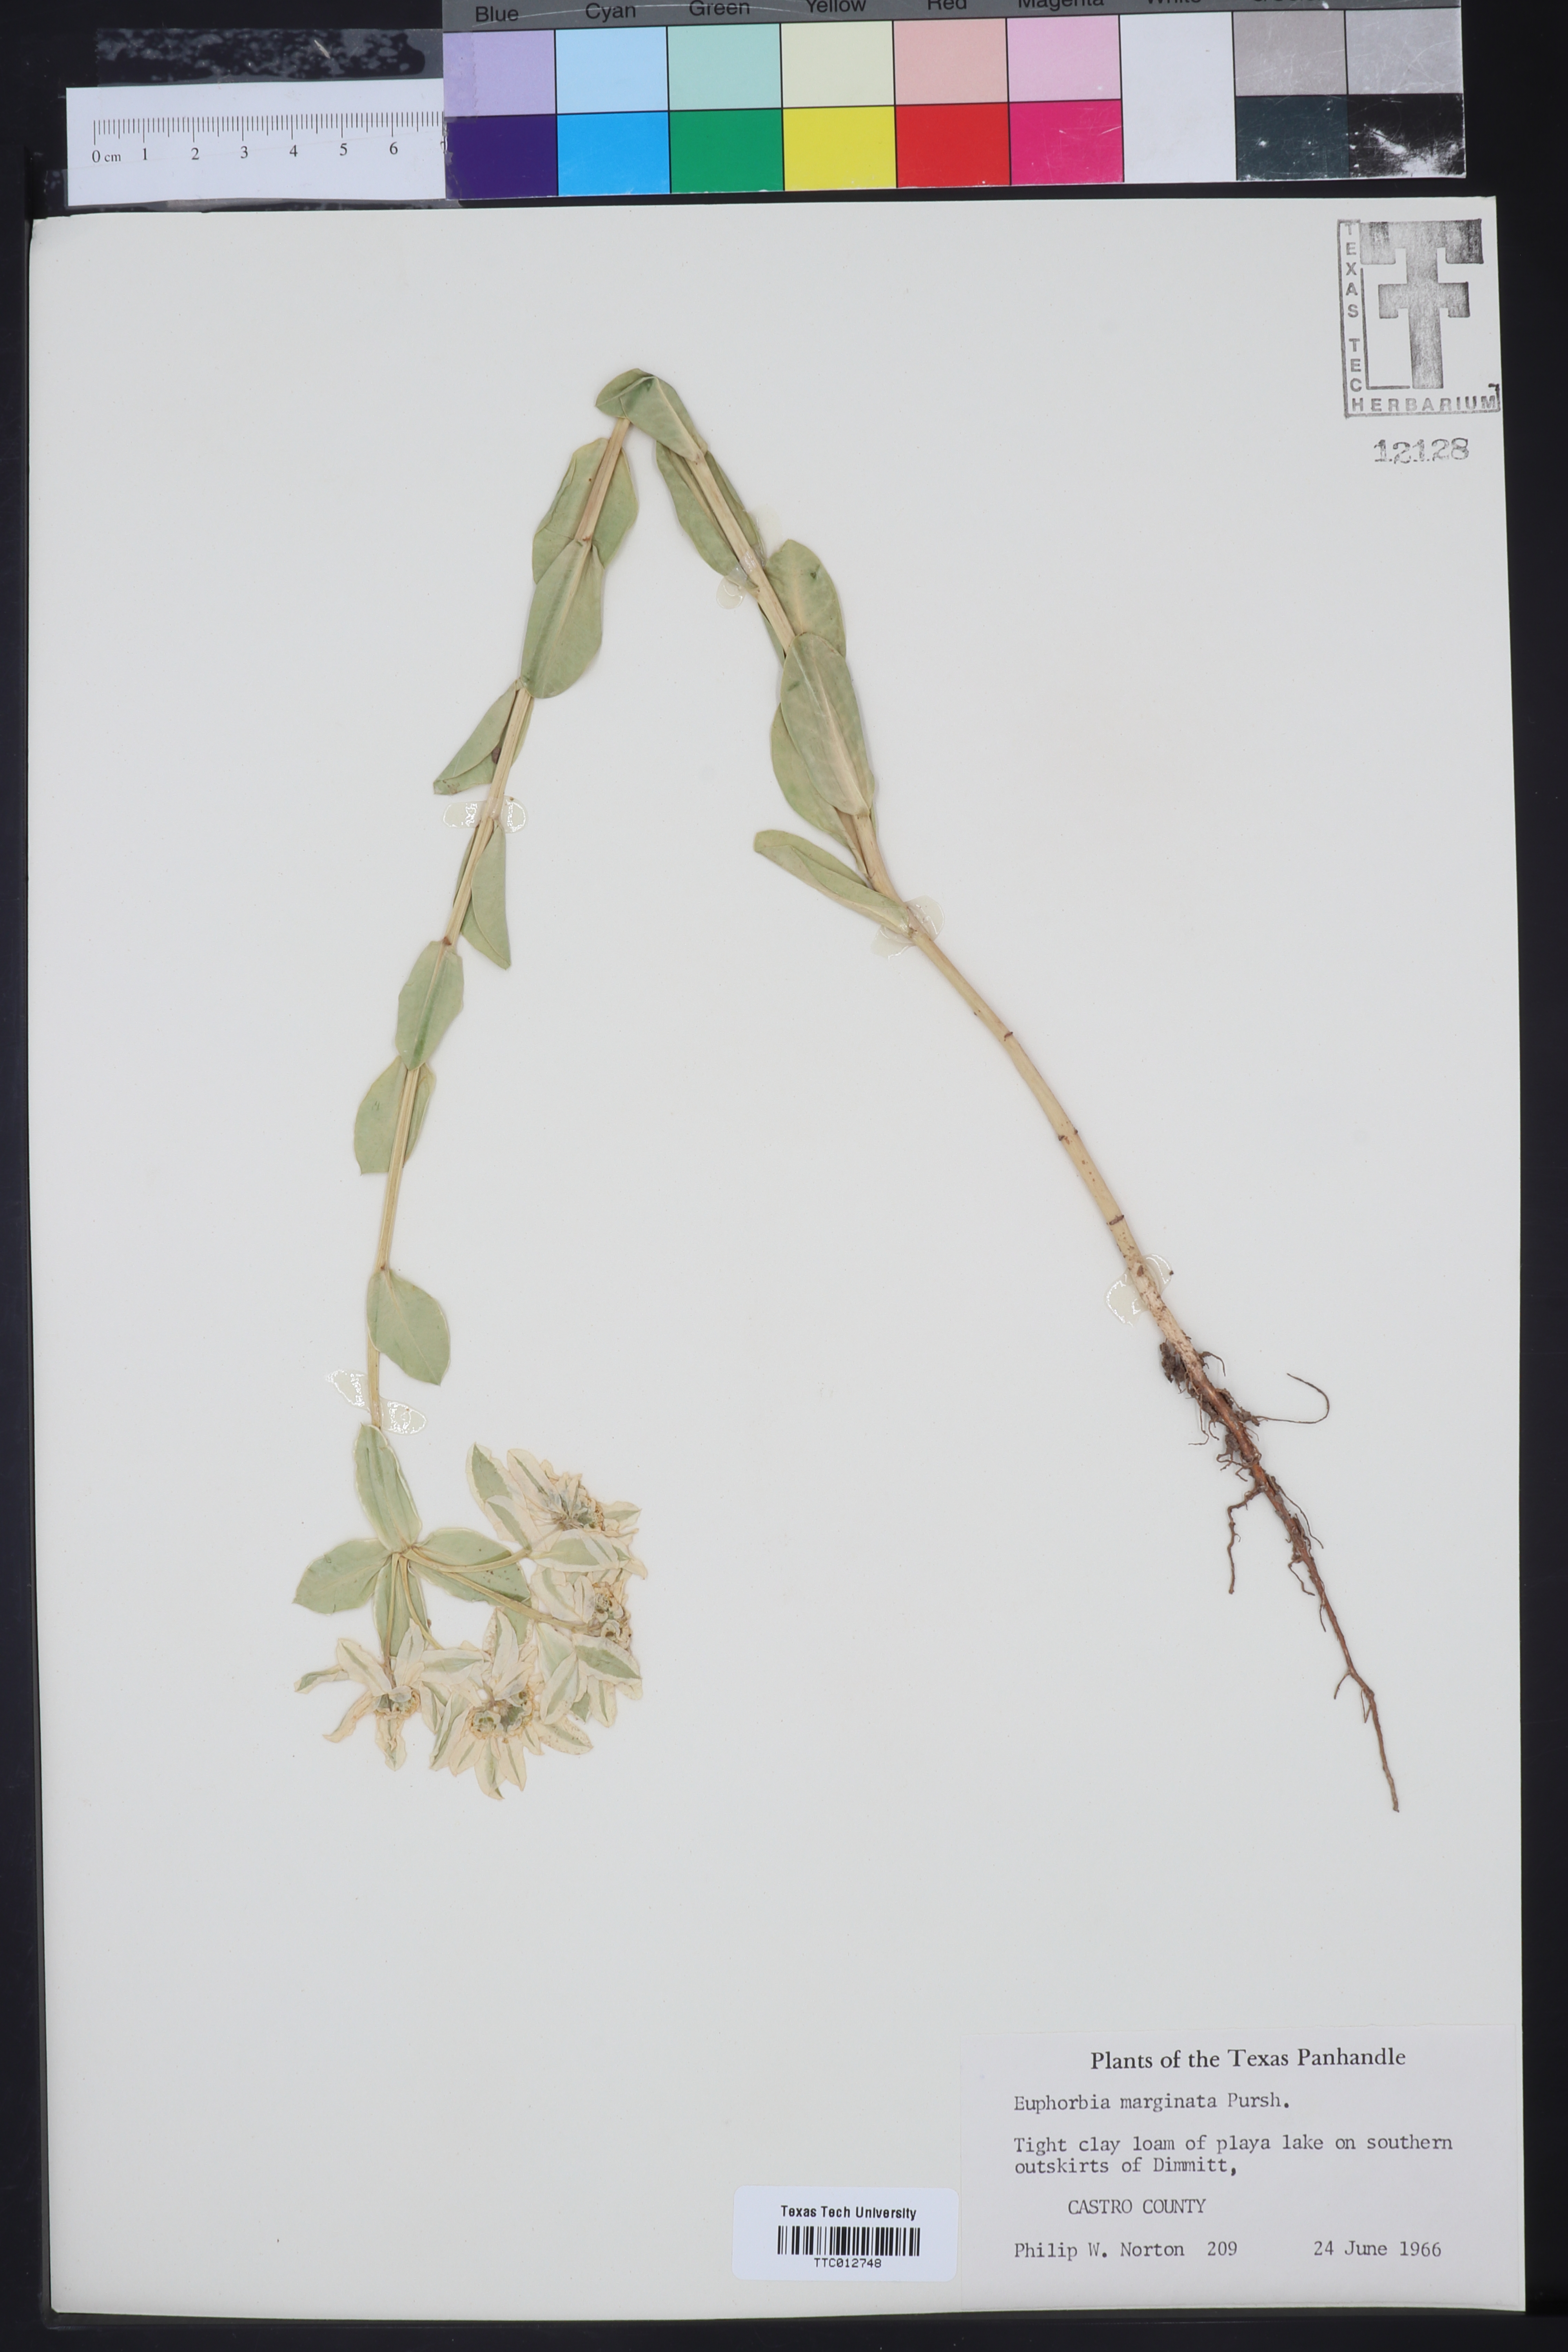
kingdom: Plantae
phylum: Tracheophyta
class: Magnoliopsida
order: Malpighiales
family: Euphorbiaceae
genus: Euphorbia
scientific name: Euphorbia marginata
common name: Ghostweed
